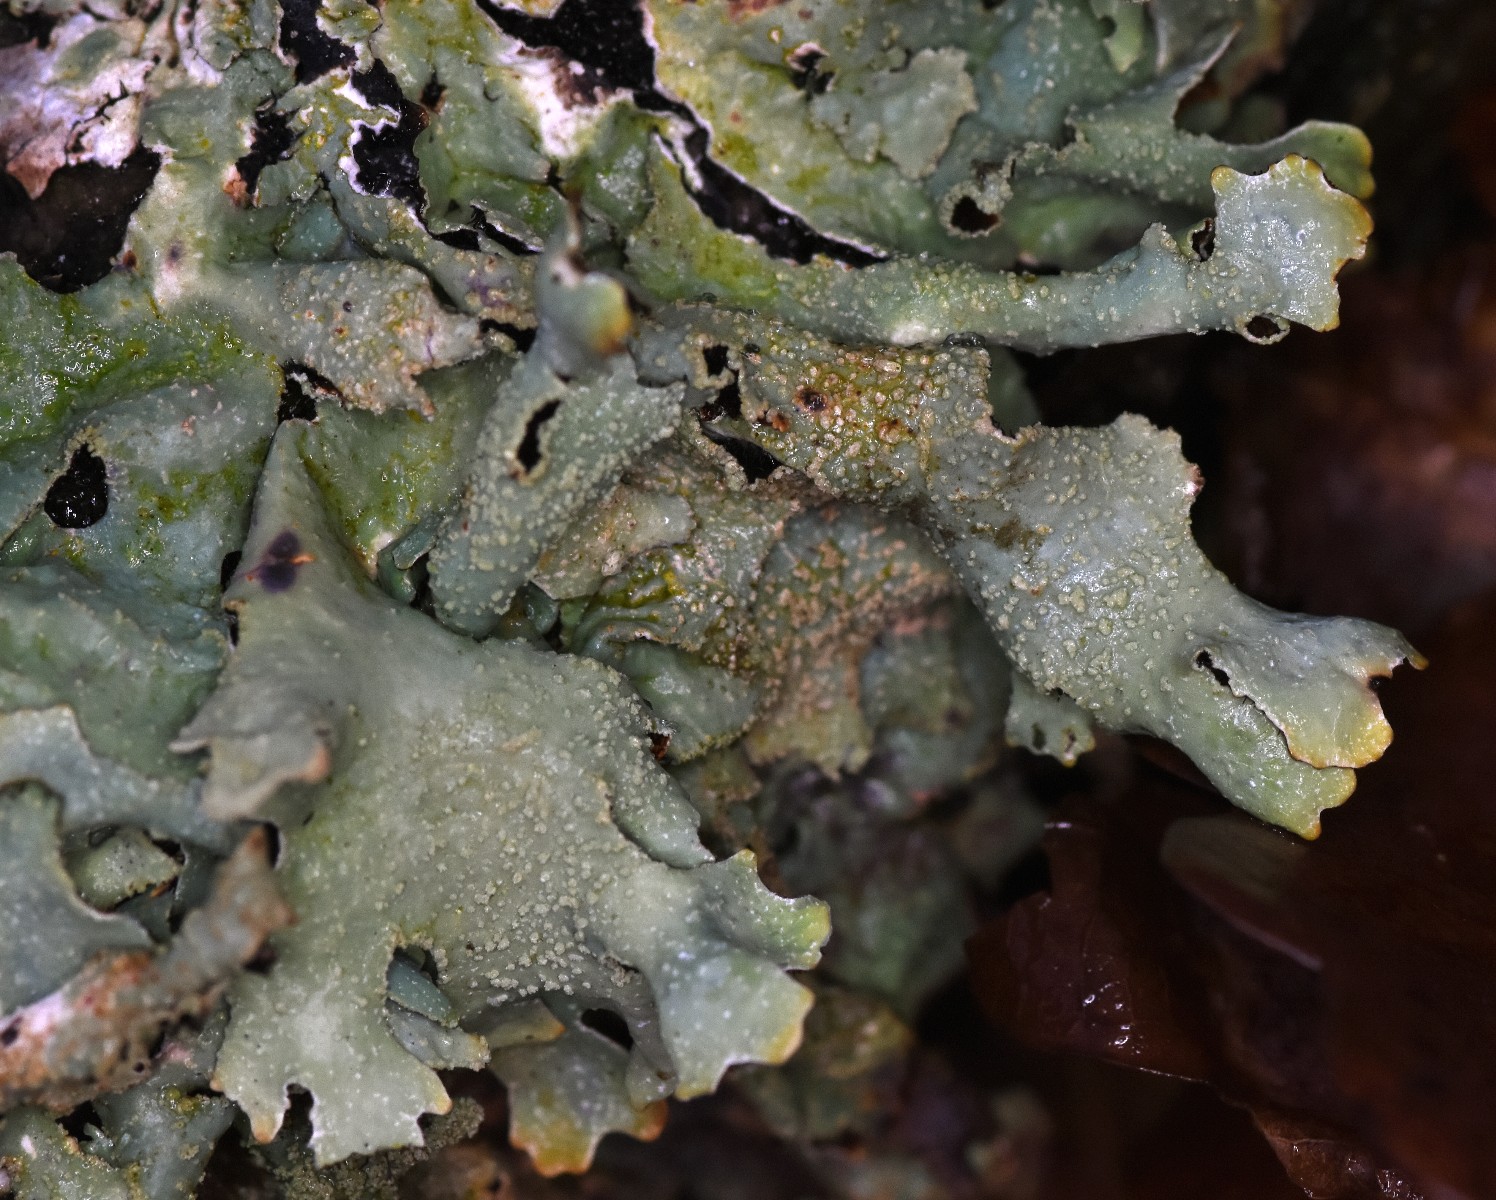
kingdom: Fungi
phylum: Ascomycota
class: Lecanoromycetes
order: Lecanorales
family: Parmeliaceae
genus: Parmelia
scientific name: Parmelia submontana
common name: langlobet skållav
